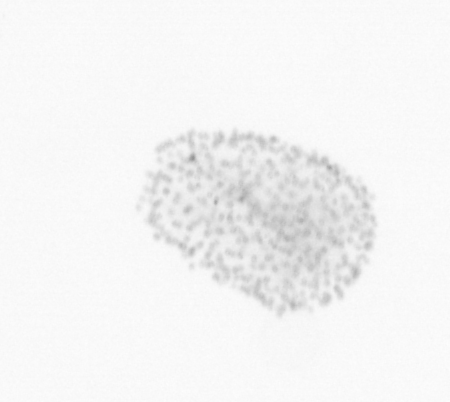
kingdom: Chromista
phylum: Ochrophyta
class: Bacillariophyceae
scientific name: Bacillariophyceae
